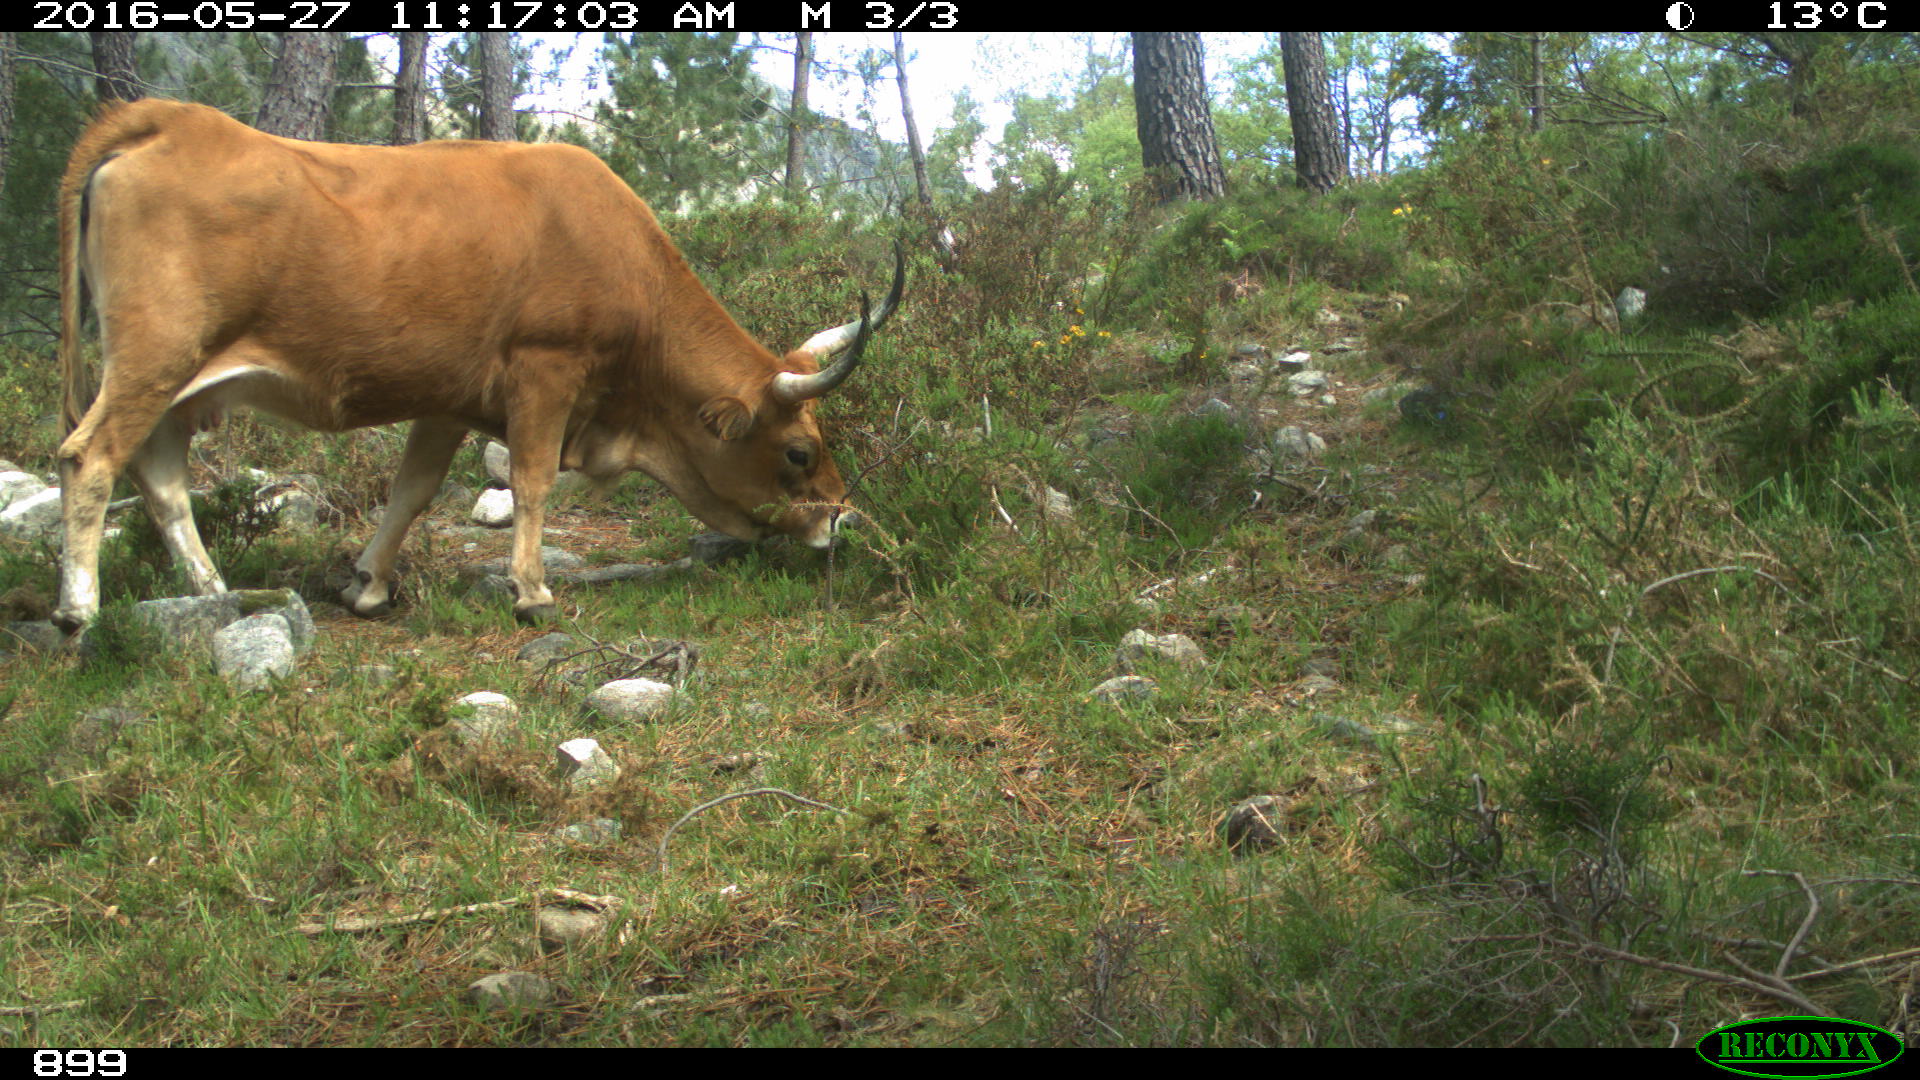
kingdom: Animalia
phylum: Chordata
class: Mammalia
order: Artiodactyla
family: Bovidae
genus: Bos
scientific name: Bos taurus
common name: Domesticated cattle
